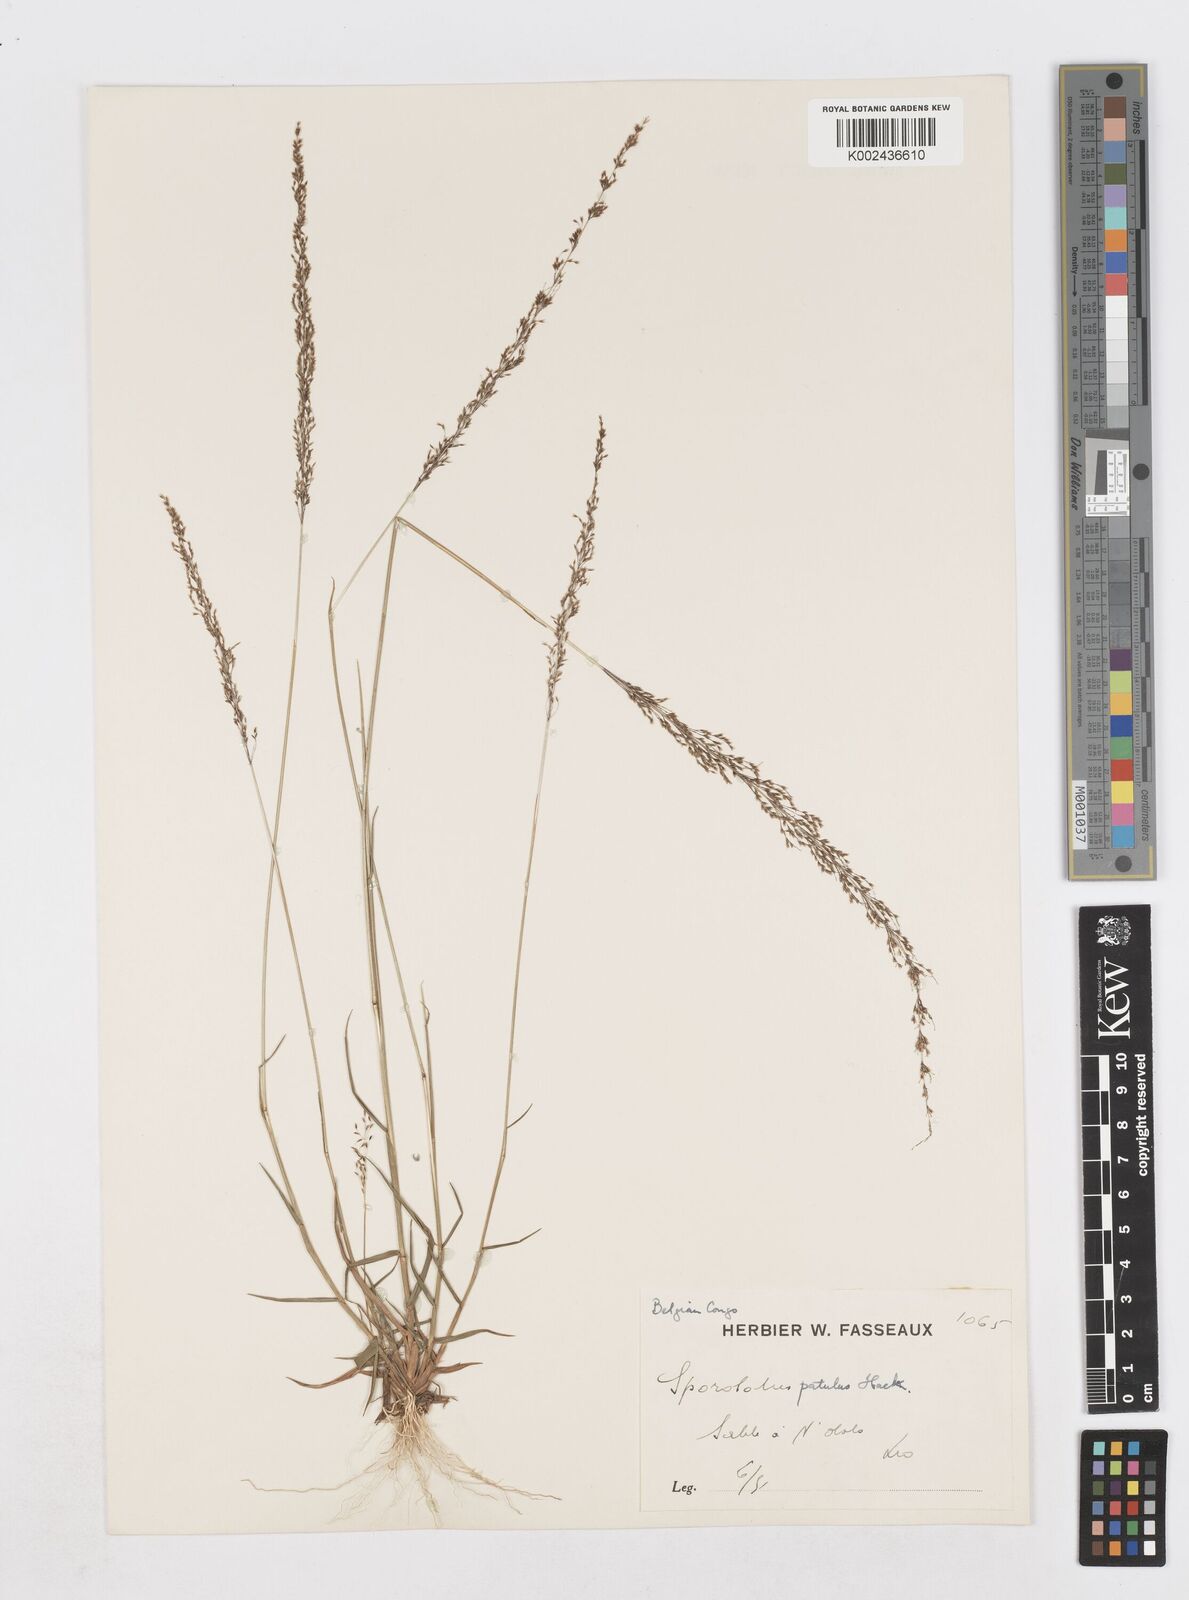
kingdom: Plantae
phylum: Tracheophyta
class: Liliopsida
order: Poales
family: Poaceae
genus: Sporobolus
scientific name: Sporobolus paniculatus
